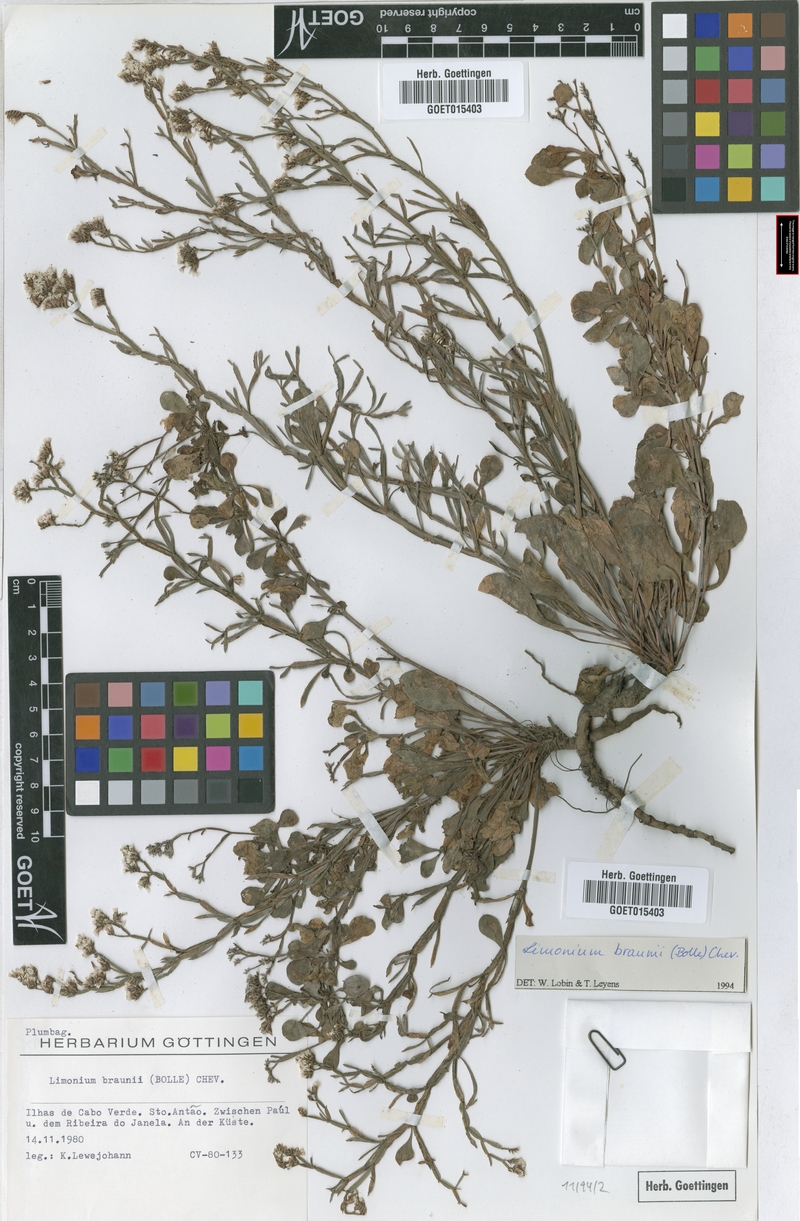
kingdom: Plantae
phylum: Tracheophyta
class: Magnoliopsida
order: Caryophyllales
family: Plumbaginaceae
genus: Limonium
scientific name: Limonium braunii
